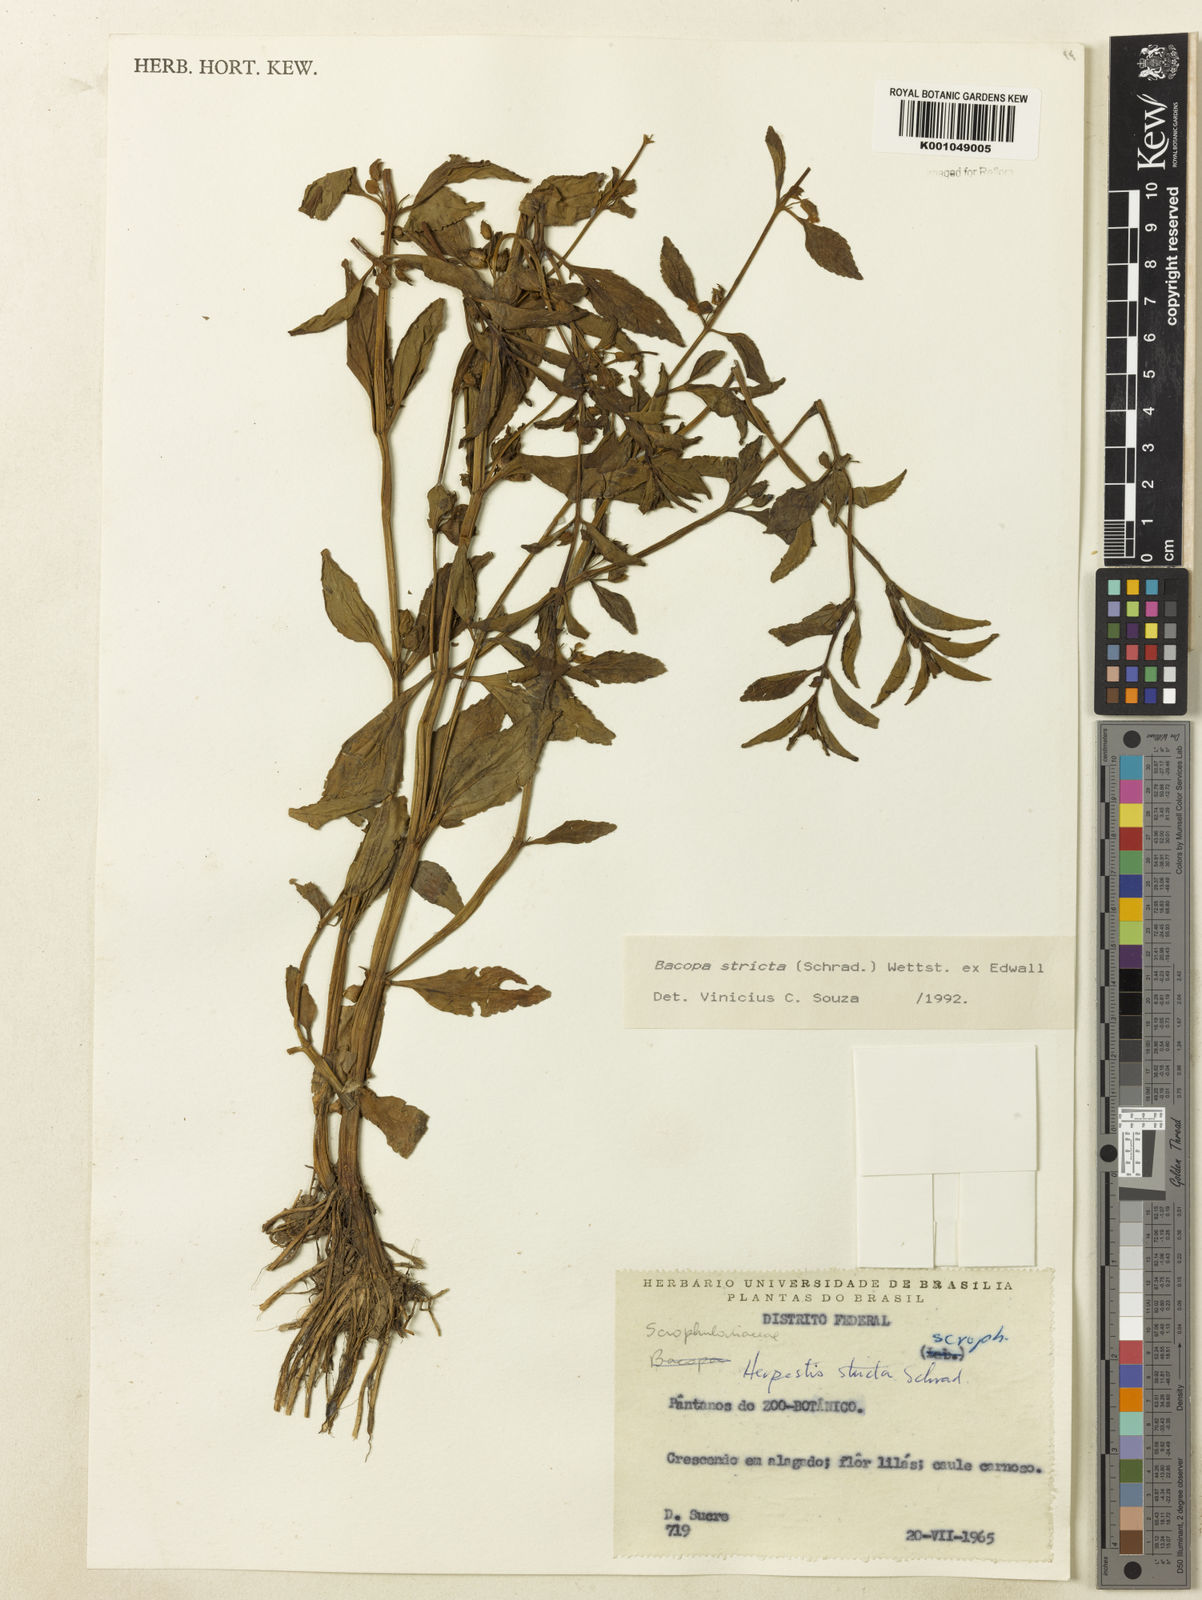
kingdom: Plantae
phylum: Tracheophyta
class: Magnoliopsida
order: Lamiales
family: Plantaginaceae
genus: Bacopa
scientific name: Bacopa stricta
